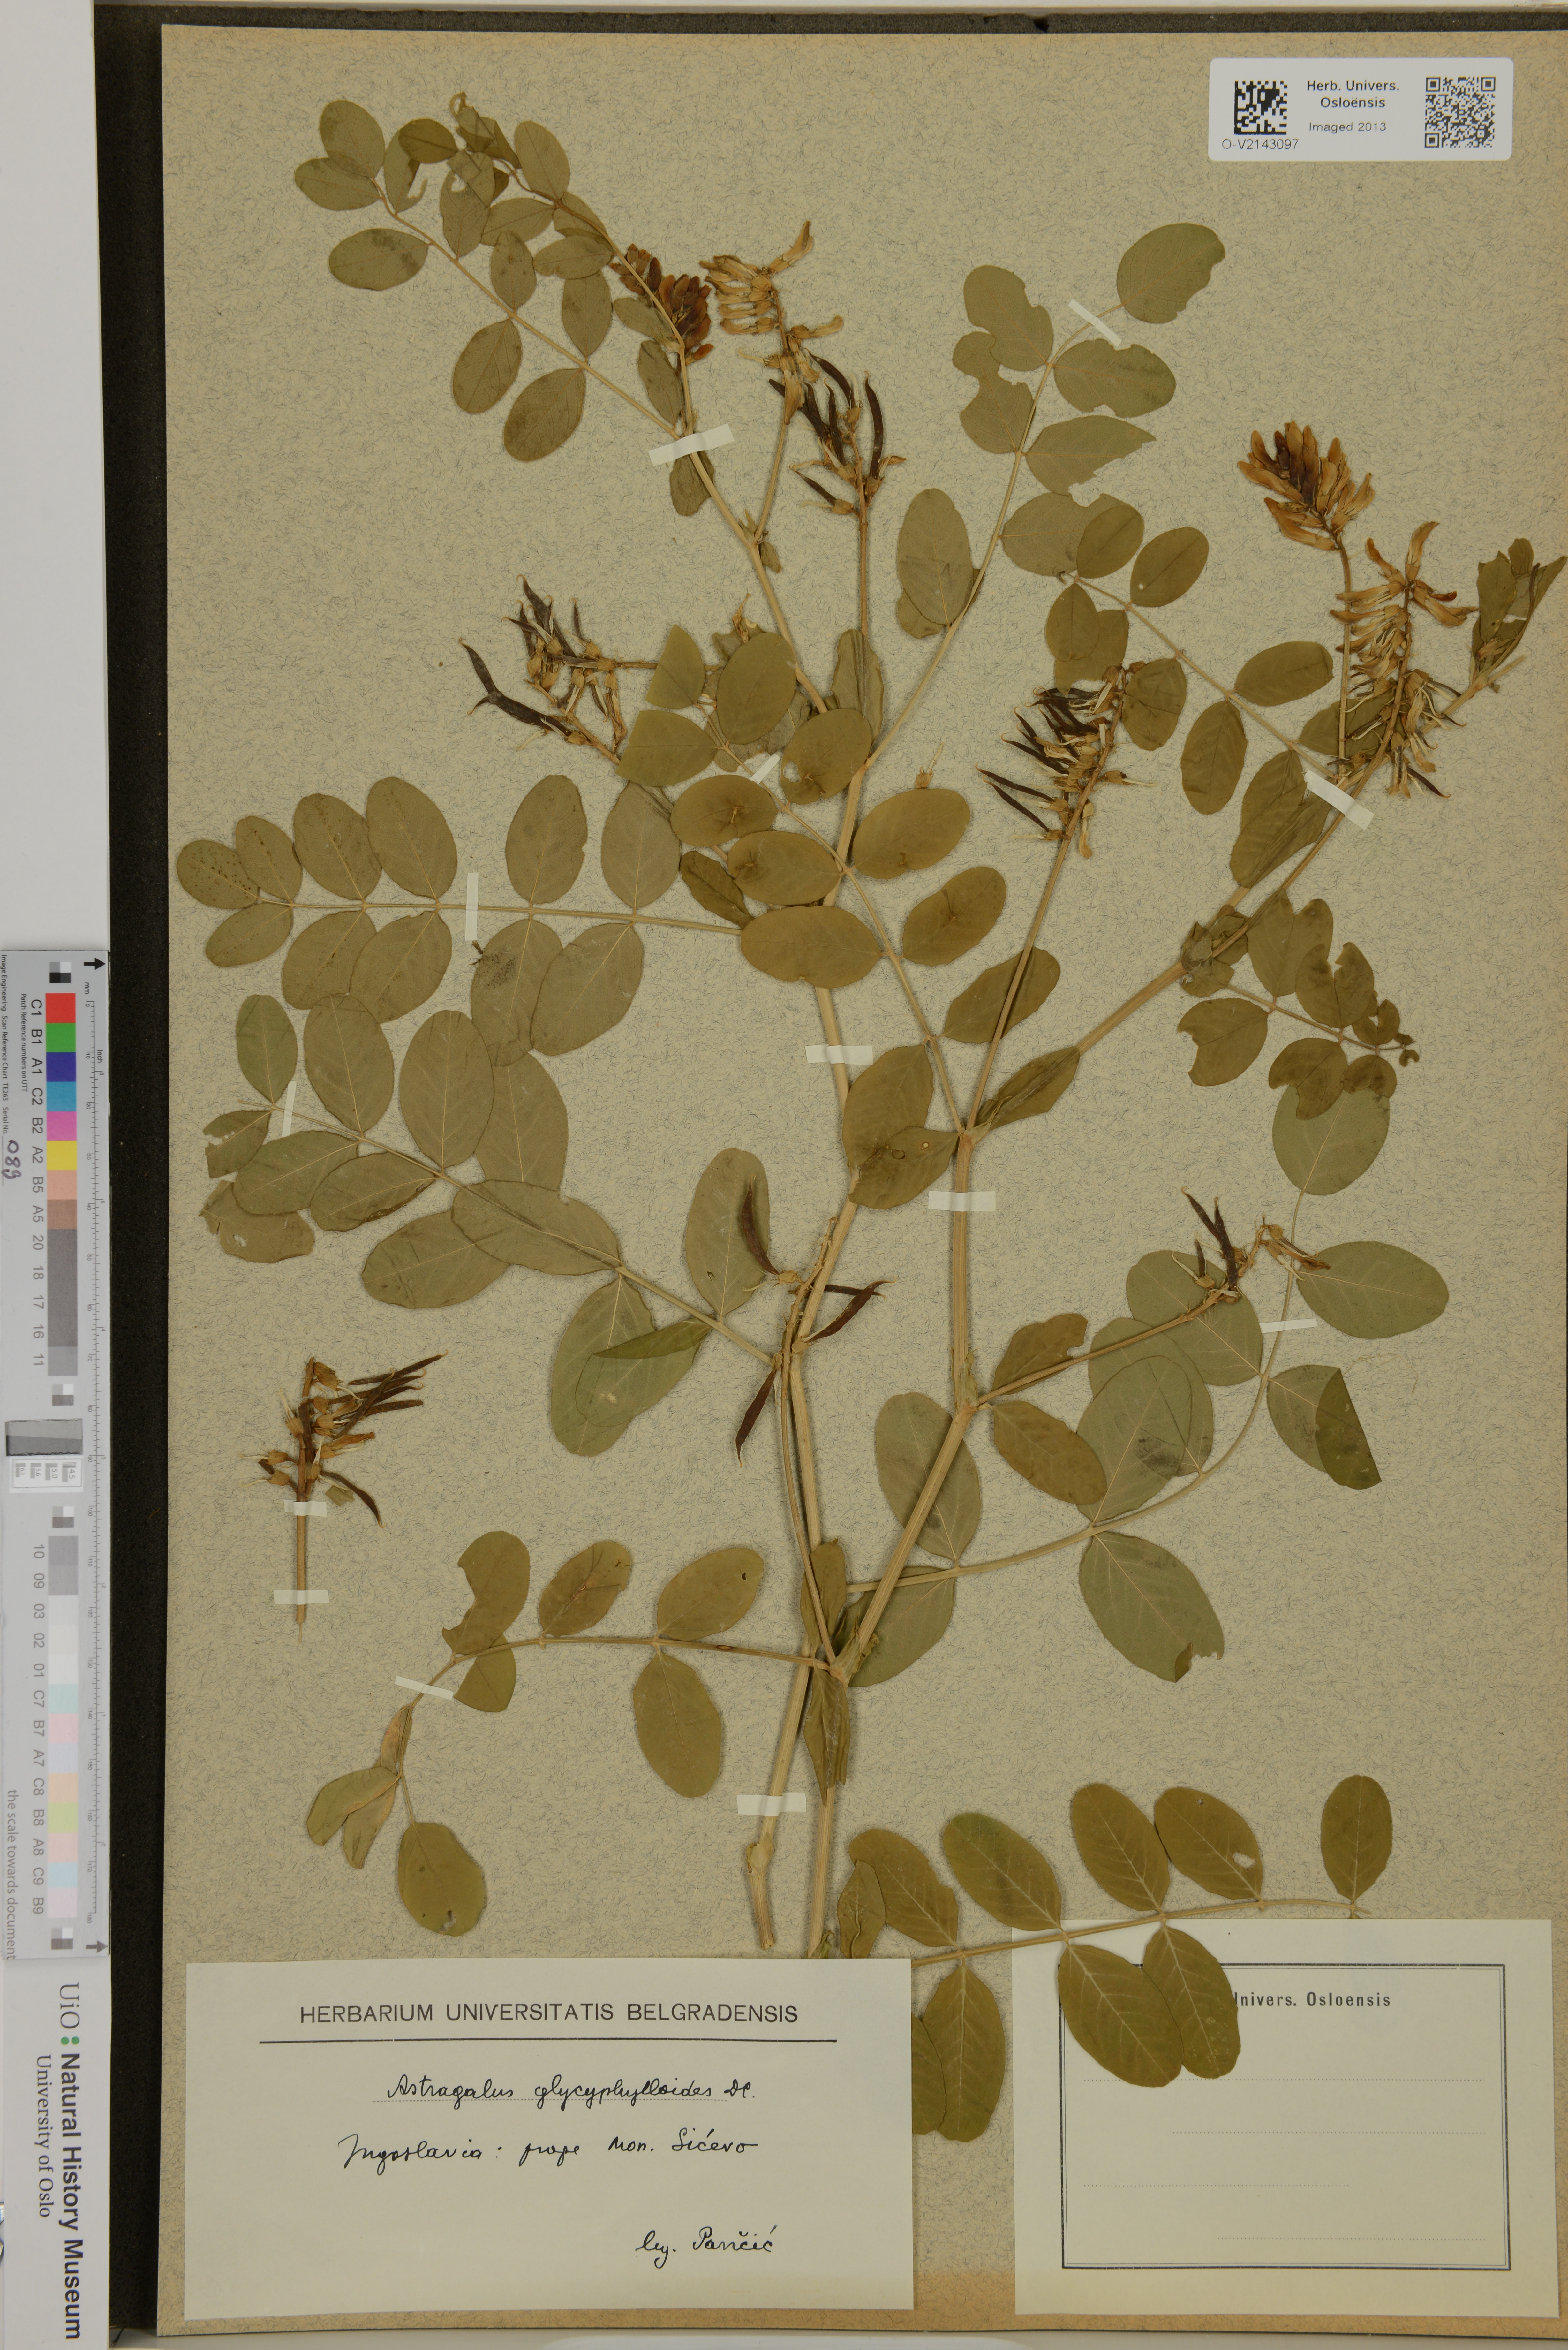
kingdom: Plantae
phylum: Tracheophyta
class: Magnoliopsida
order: Fabales
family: Fabaceae
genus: Astragalus
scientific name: Astragalus glycyphylloides
